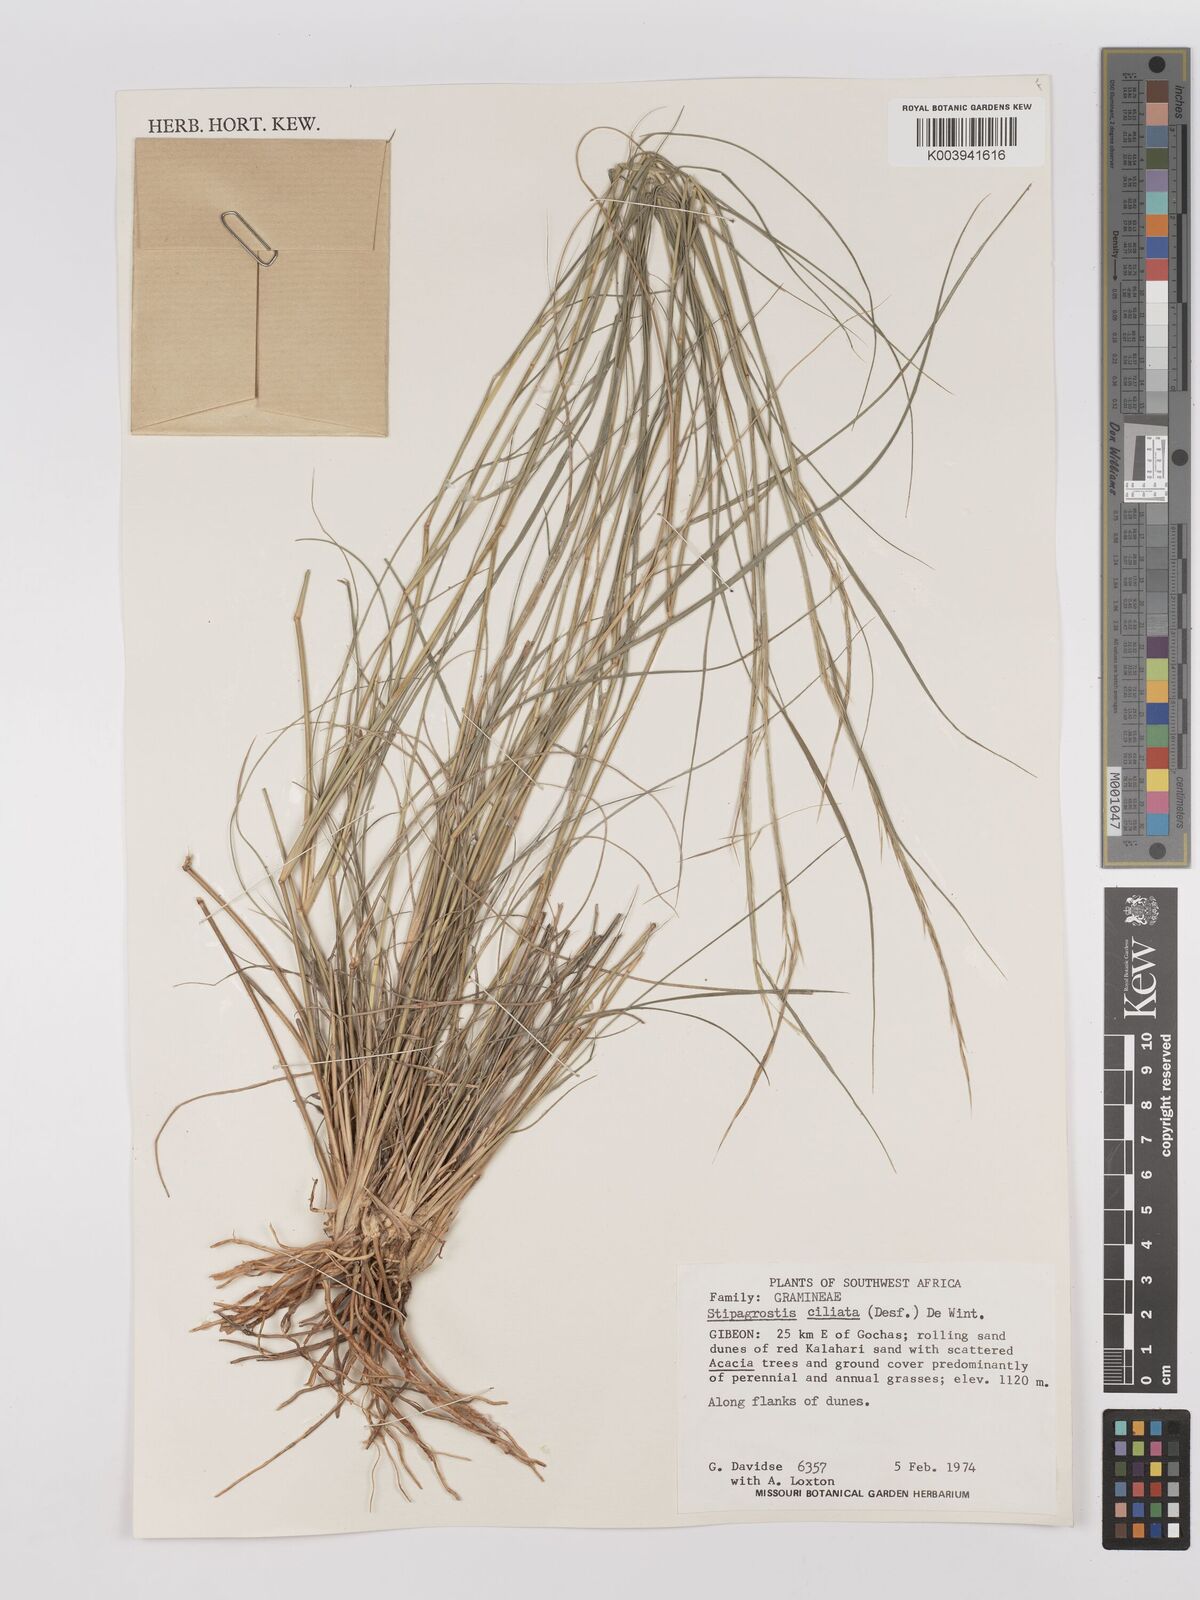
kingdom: Plantae
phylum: Tracheophyta
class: Liliopsida
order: Poales
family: Poaceae
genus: Stipagrostis
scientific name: Stipagrostis ciliata
